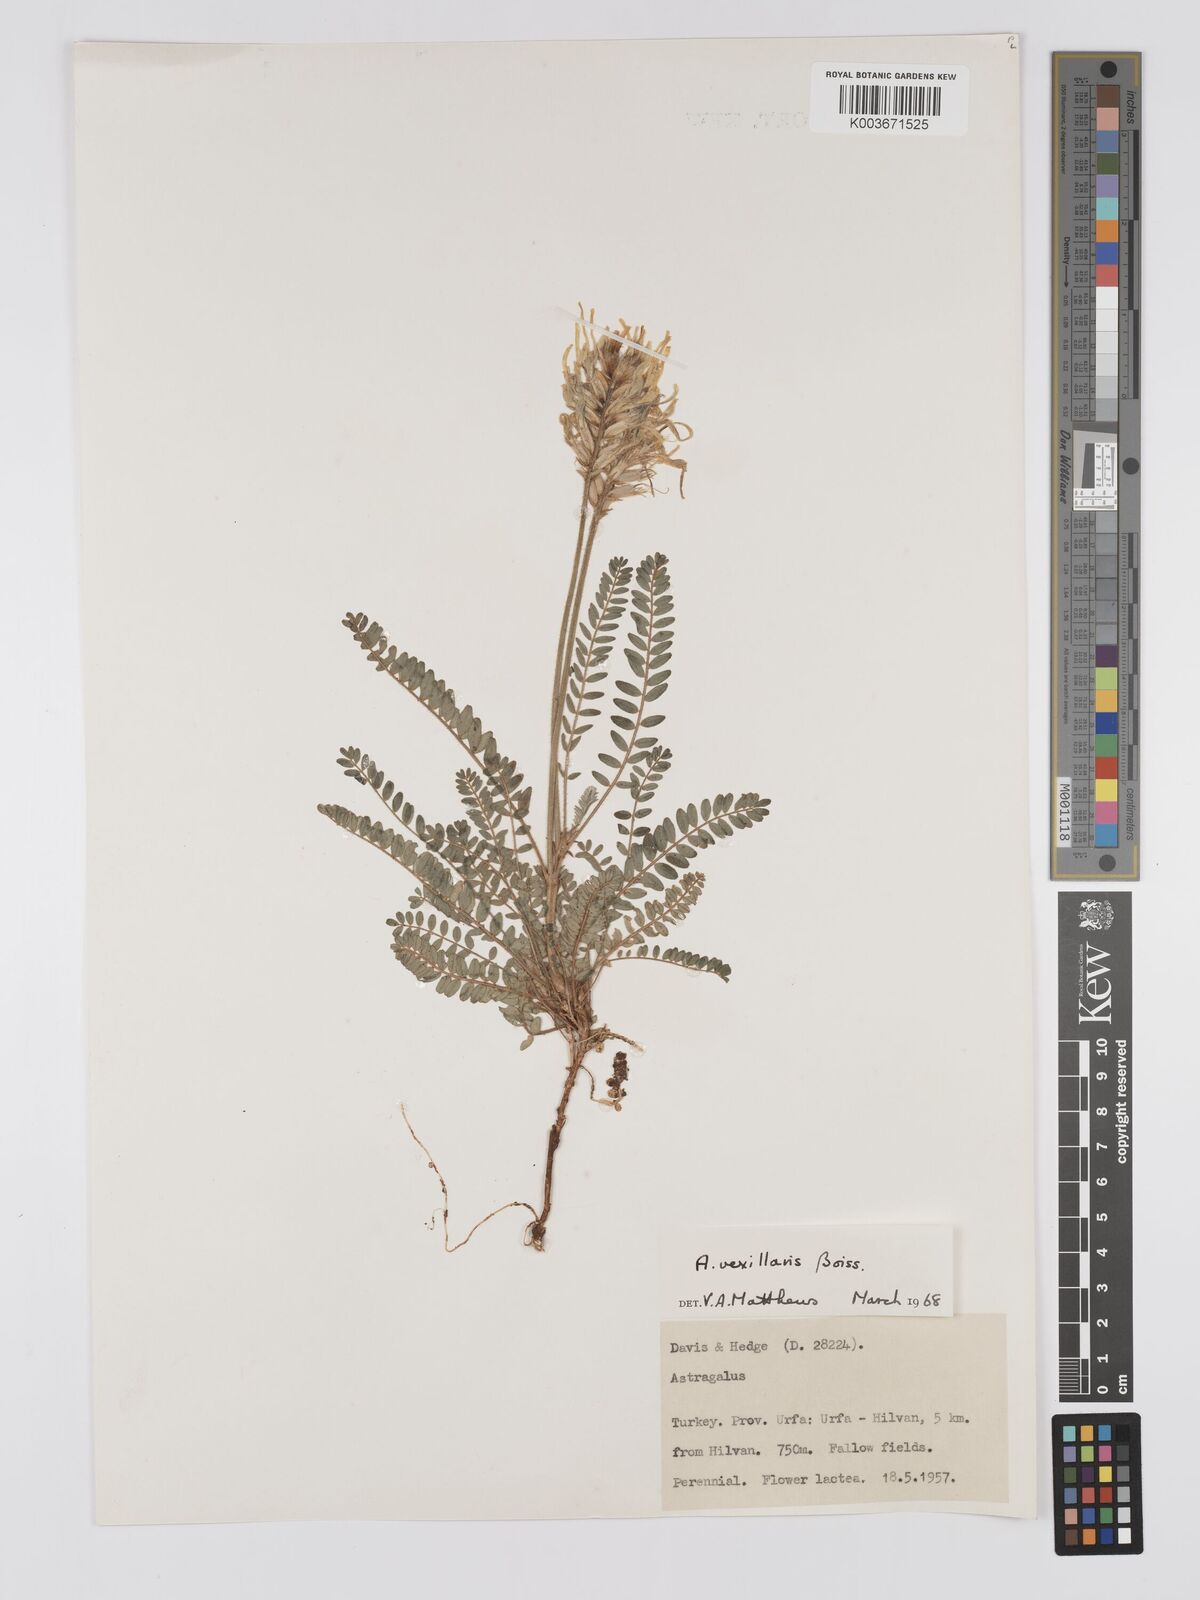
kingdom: Plantae
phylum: Tracheophyta
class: Magnoliopsida
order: Fabales
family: Fabaceae
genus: Astragalus
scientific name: Astragalus vexillaris
